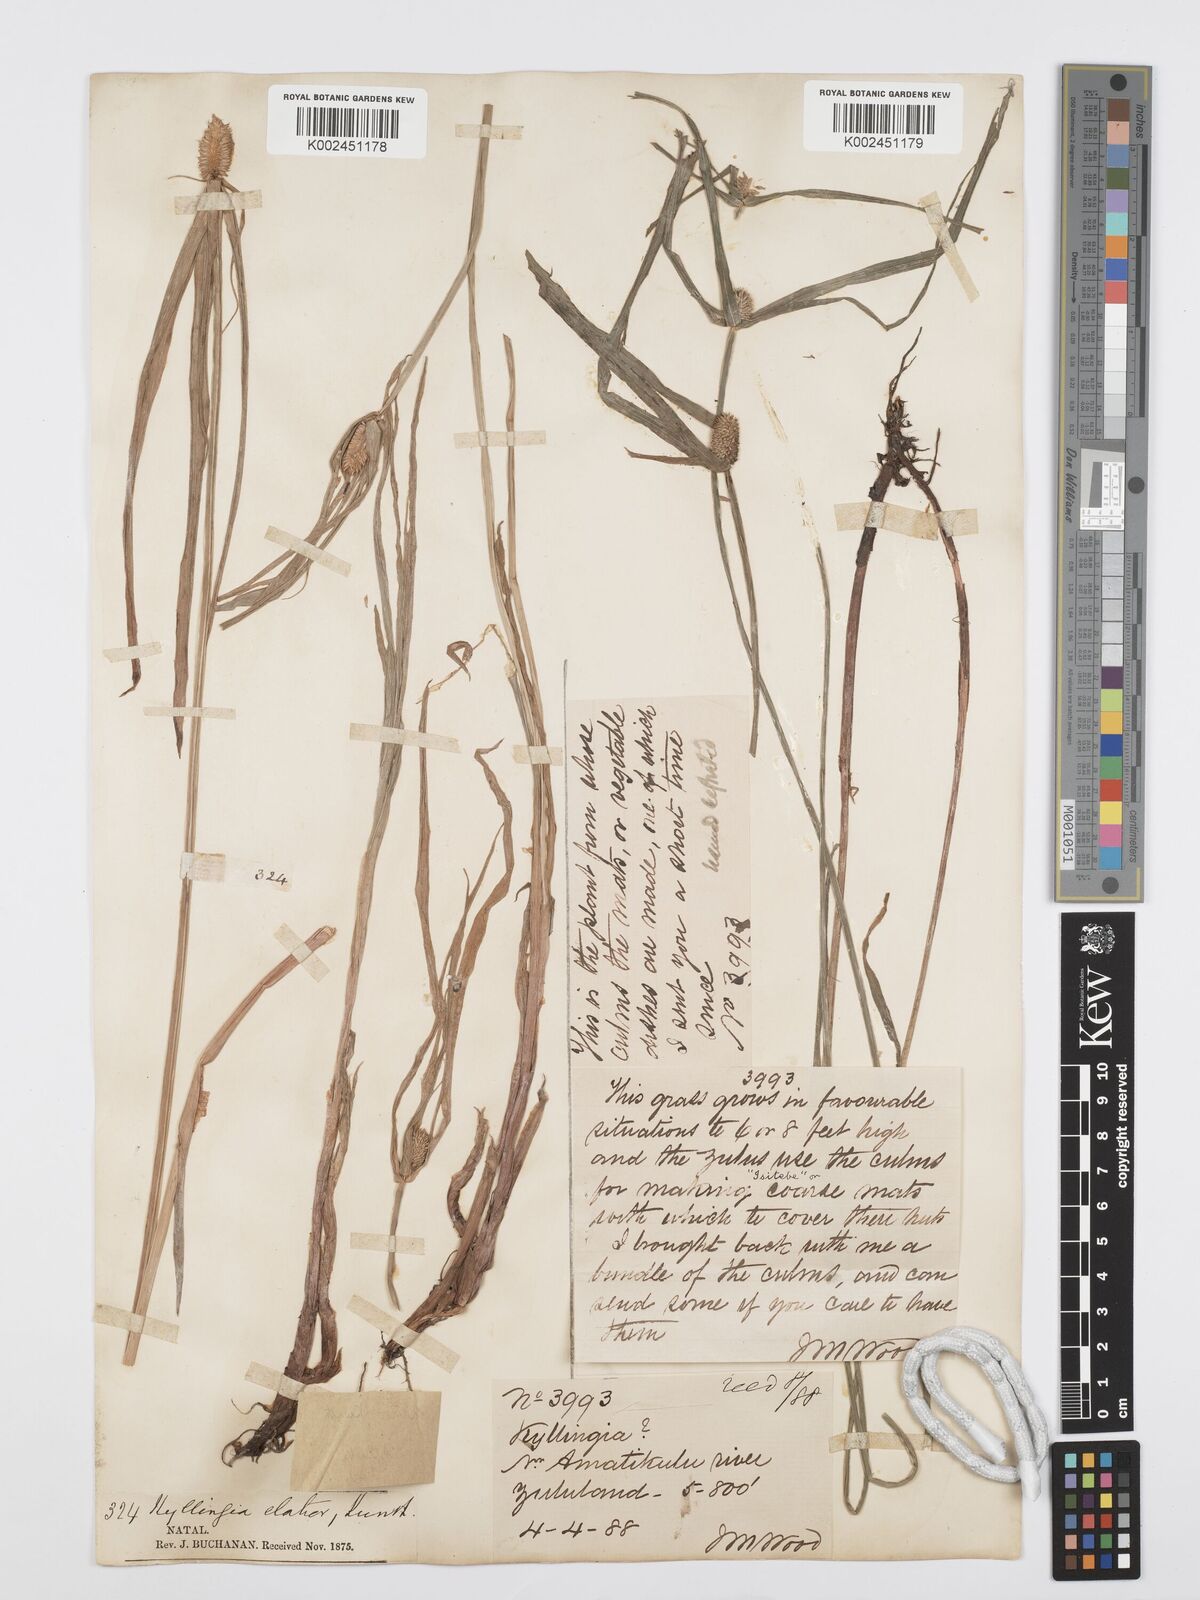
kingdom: Plantae
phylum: Tracheophyta
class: Liliopsida
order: Poales
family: Cyperaceae
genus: Cyperus
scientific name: Cyperus
